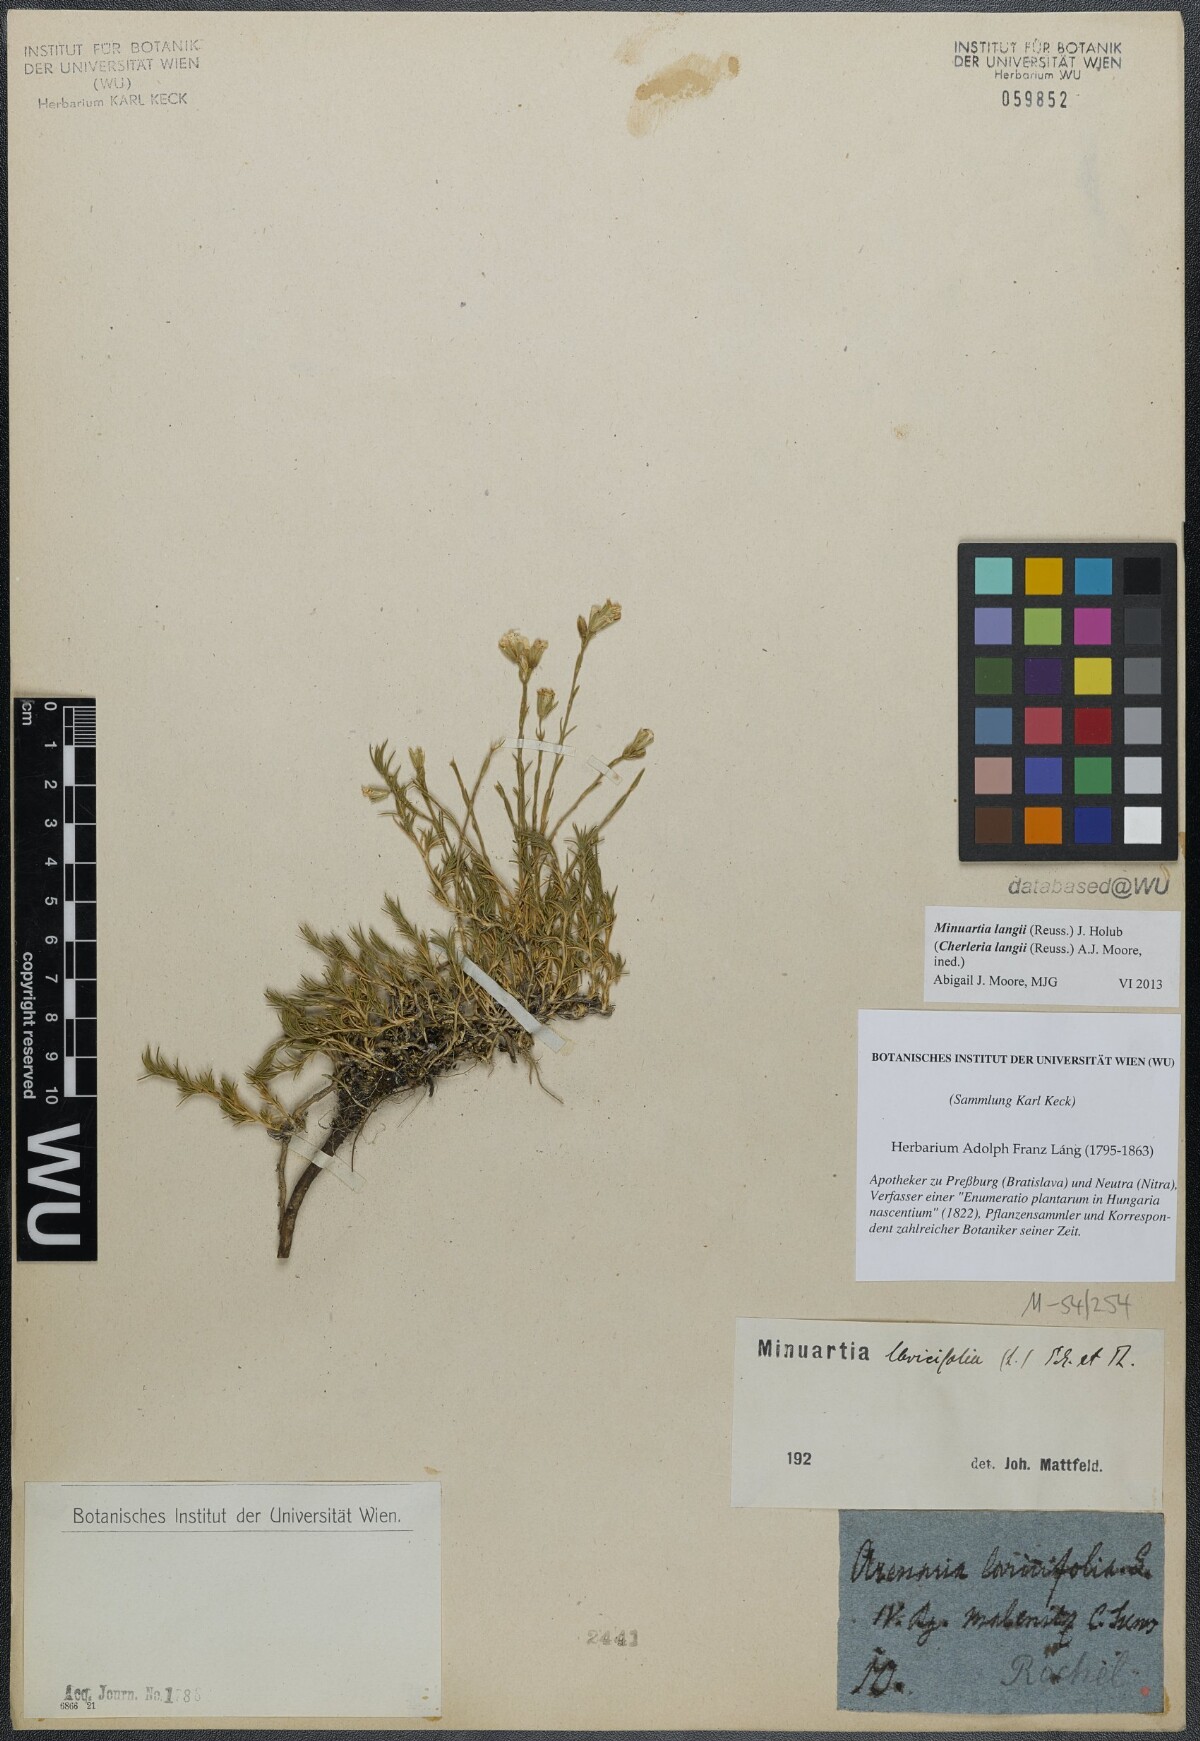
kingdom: Plantae
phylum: Tracheophyta
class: Magnoliopsida
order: Caryophyllales
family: Caryophyllaceae
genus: Cherleria
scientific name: Cherleria langii
